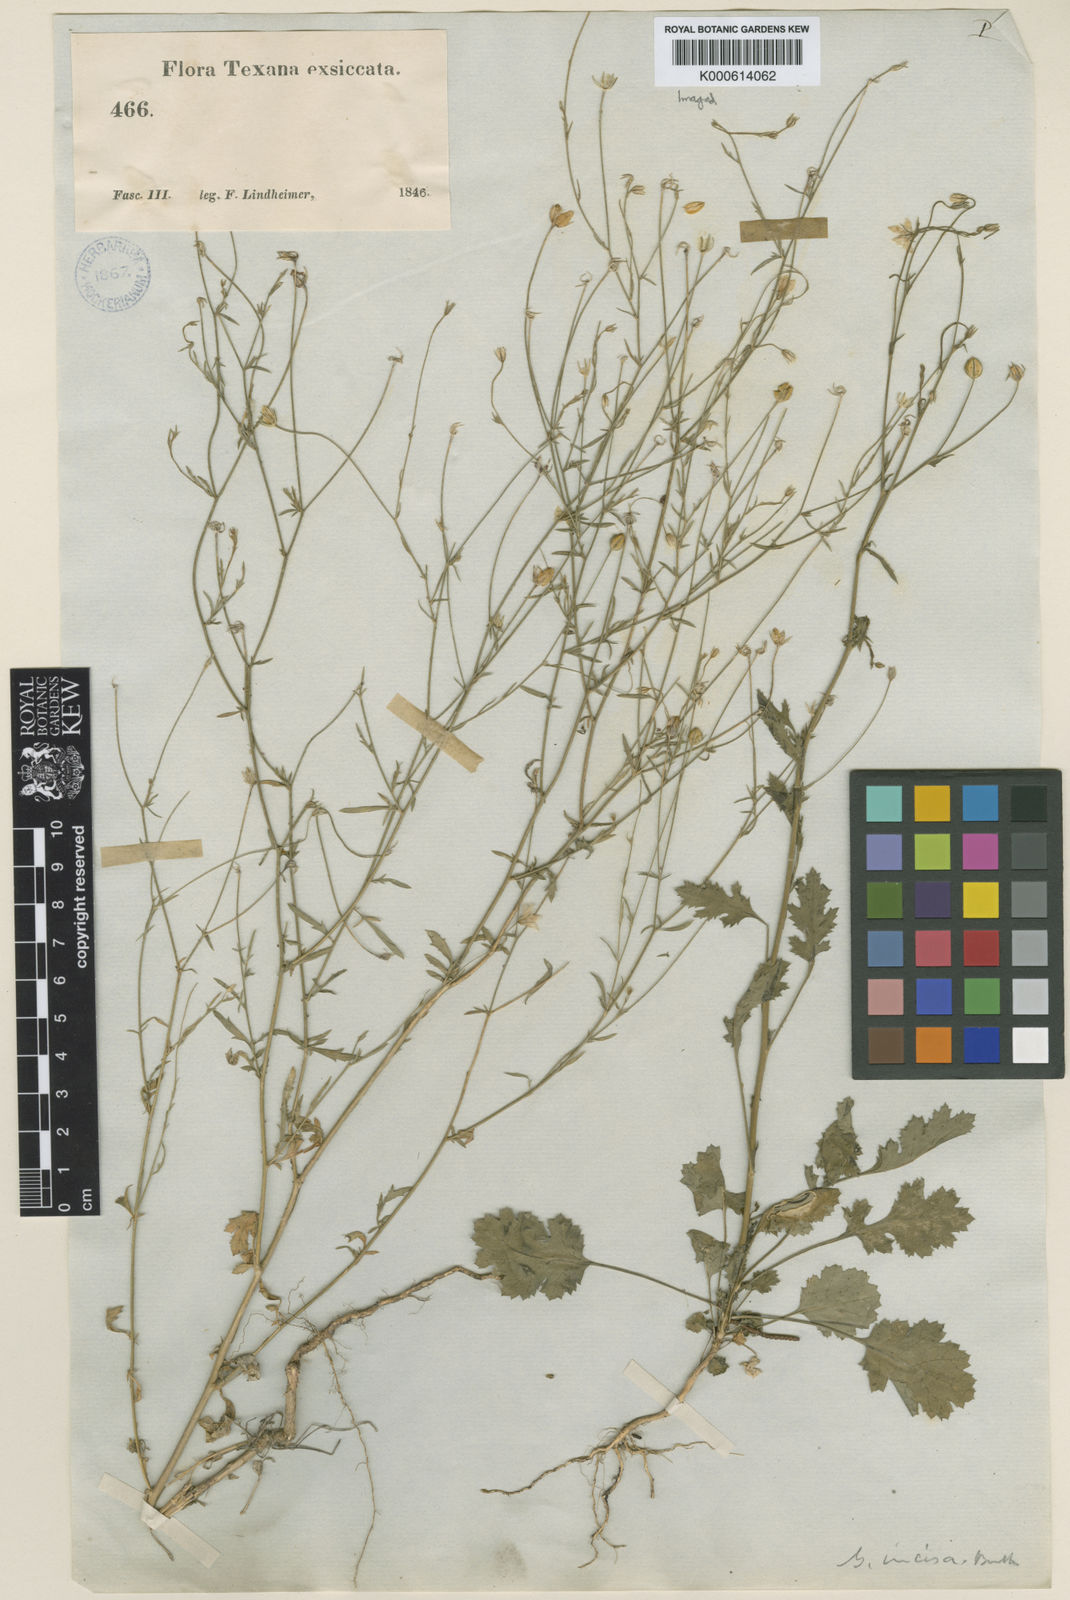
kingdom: Plantae
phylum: Tracheophyta
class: Magnoliopsida
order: Ericales
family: Polemoniaceae
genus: Giliastrum
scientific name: Giliastrum incisum
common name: Splitleaf gilia
